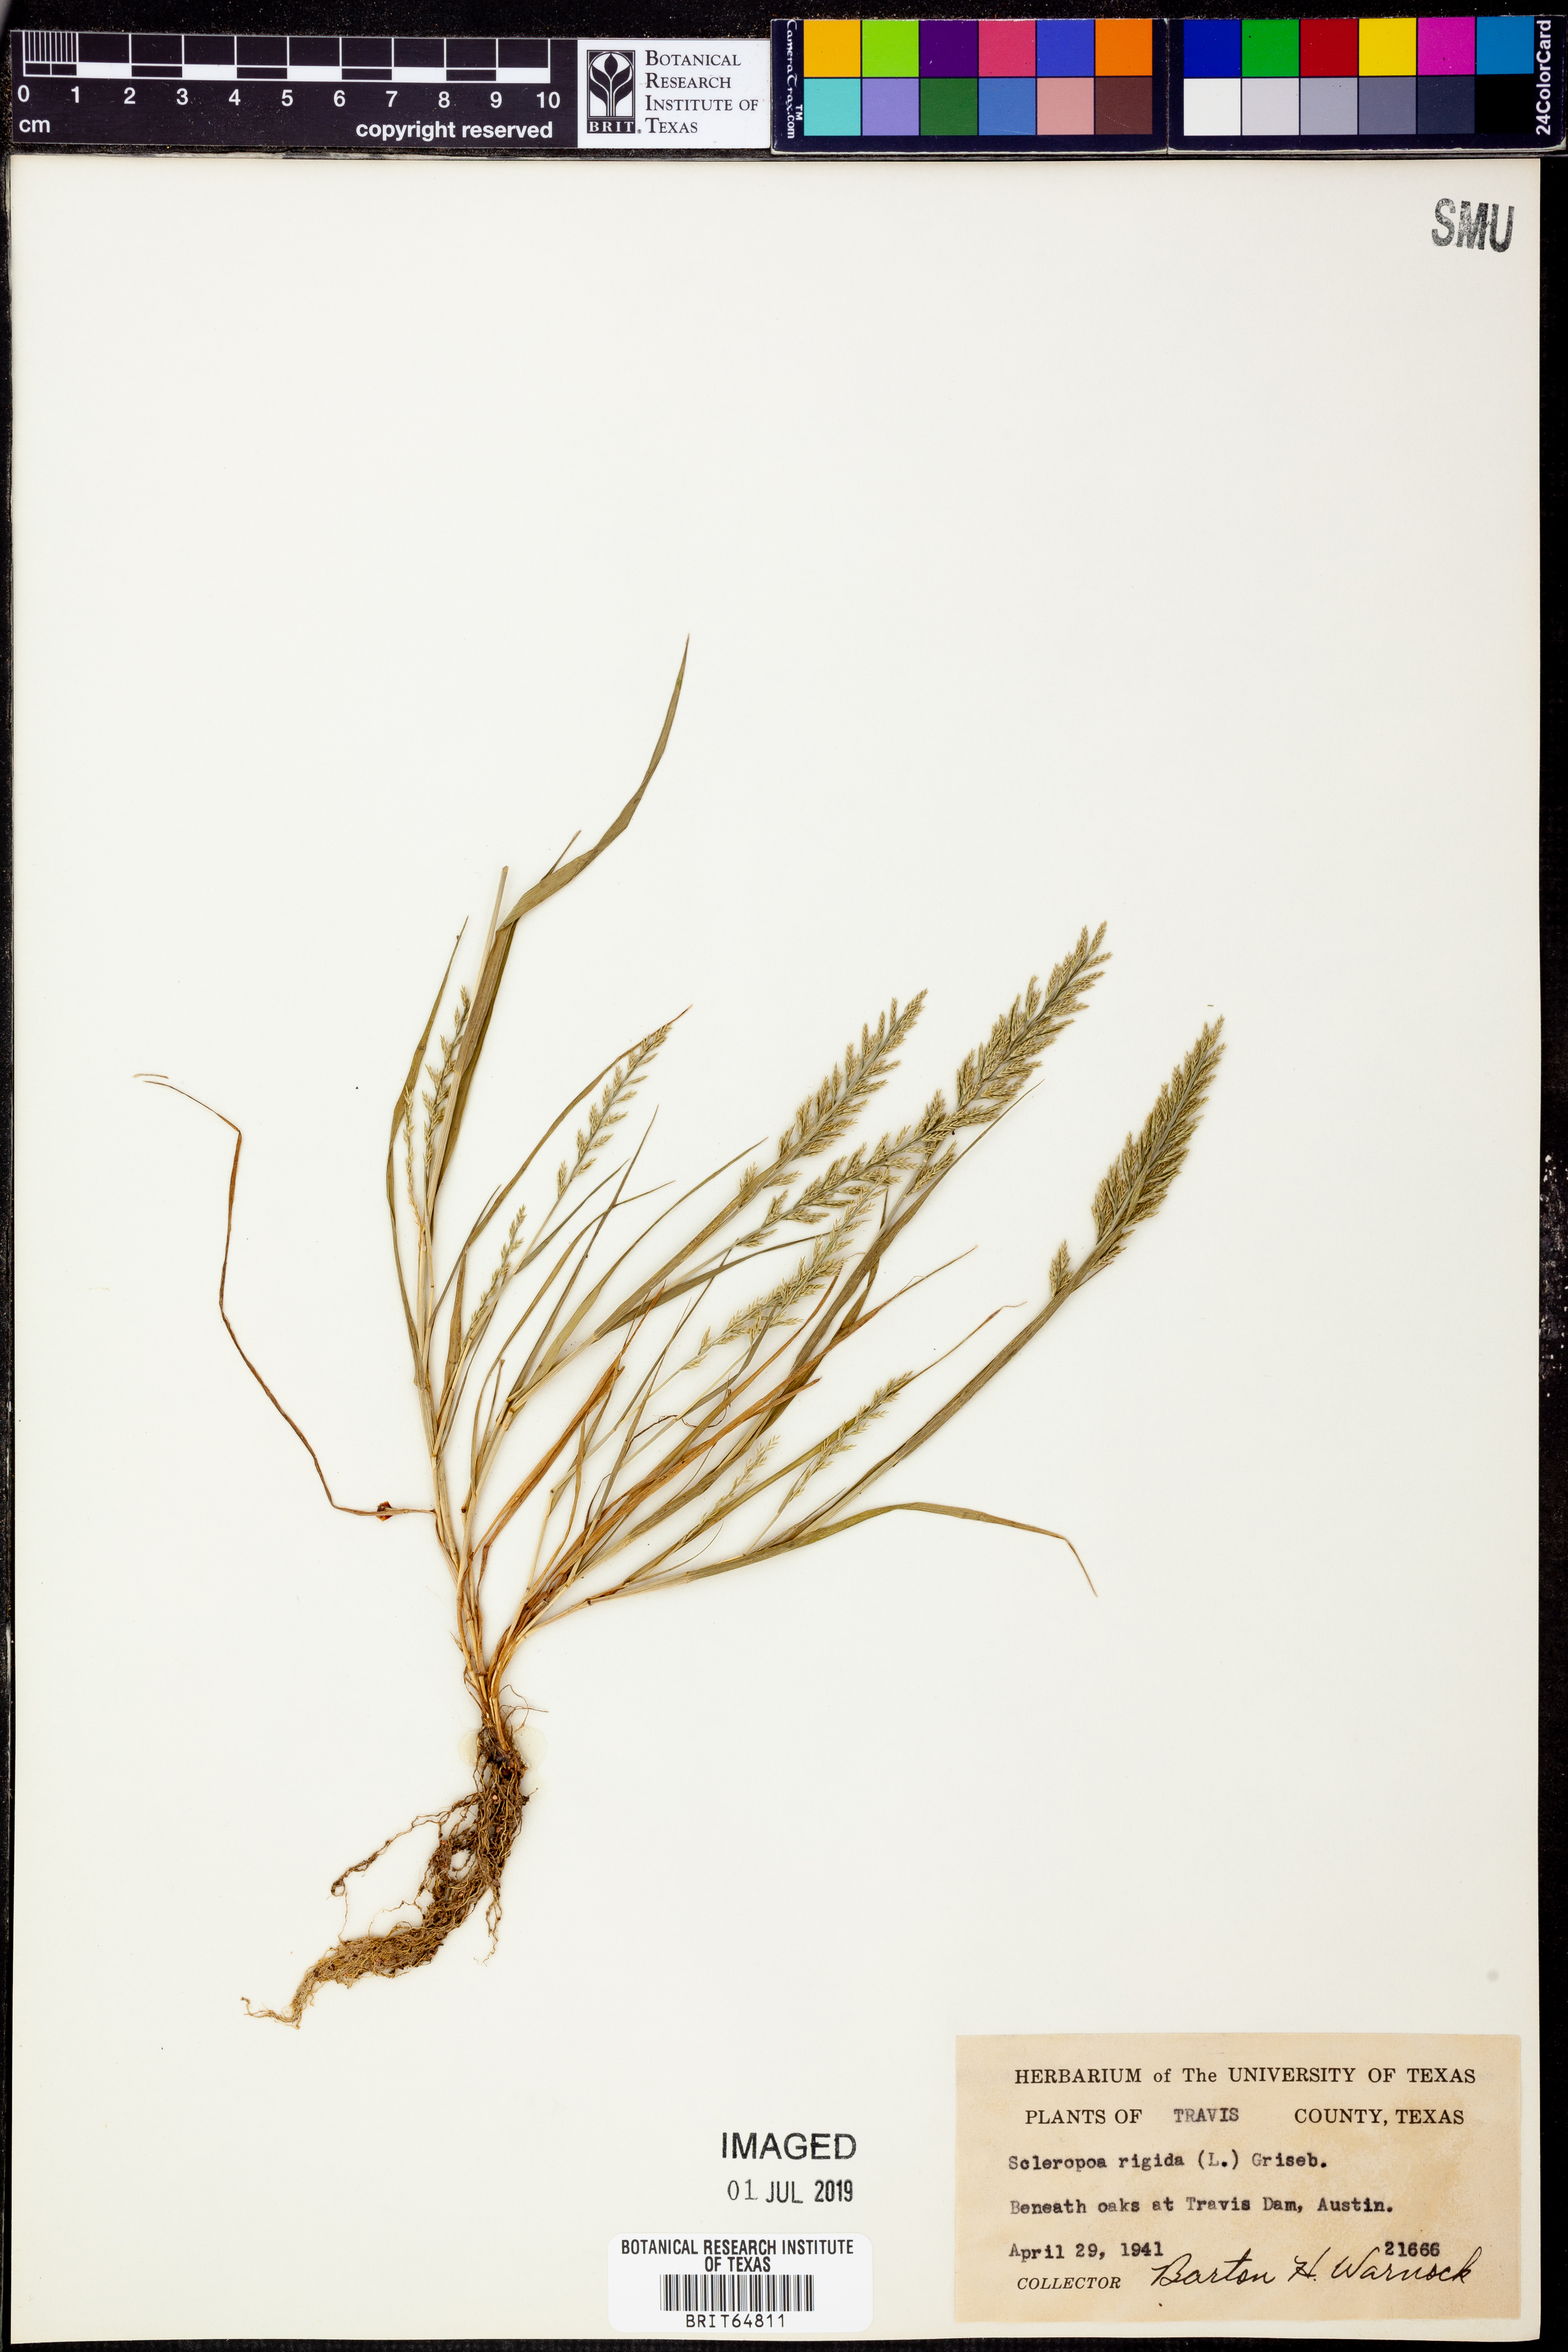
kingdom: Plantae
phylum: Tracheophyta
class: Liliopsida
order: Poales
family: Poaceae
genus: Catapodium
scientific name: Catapodium rigidum
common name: Fern-grass
